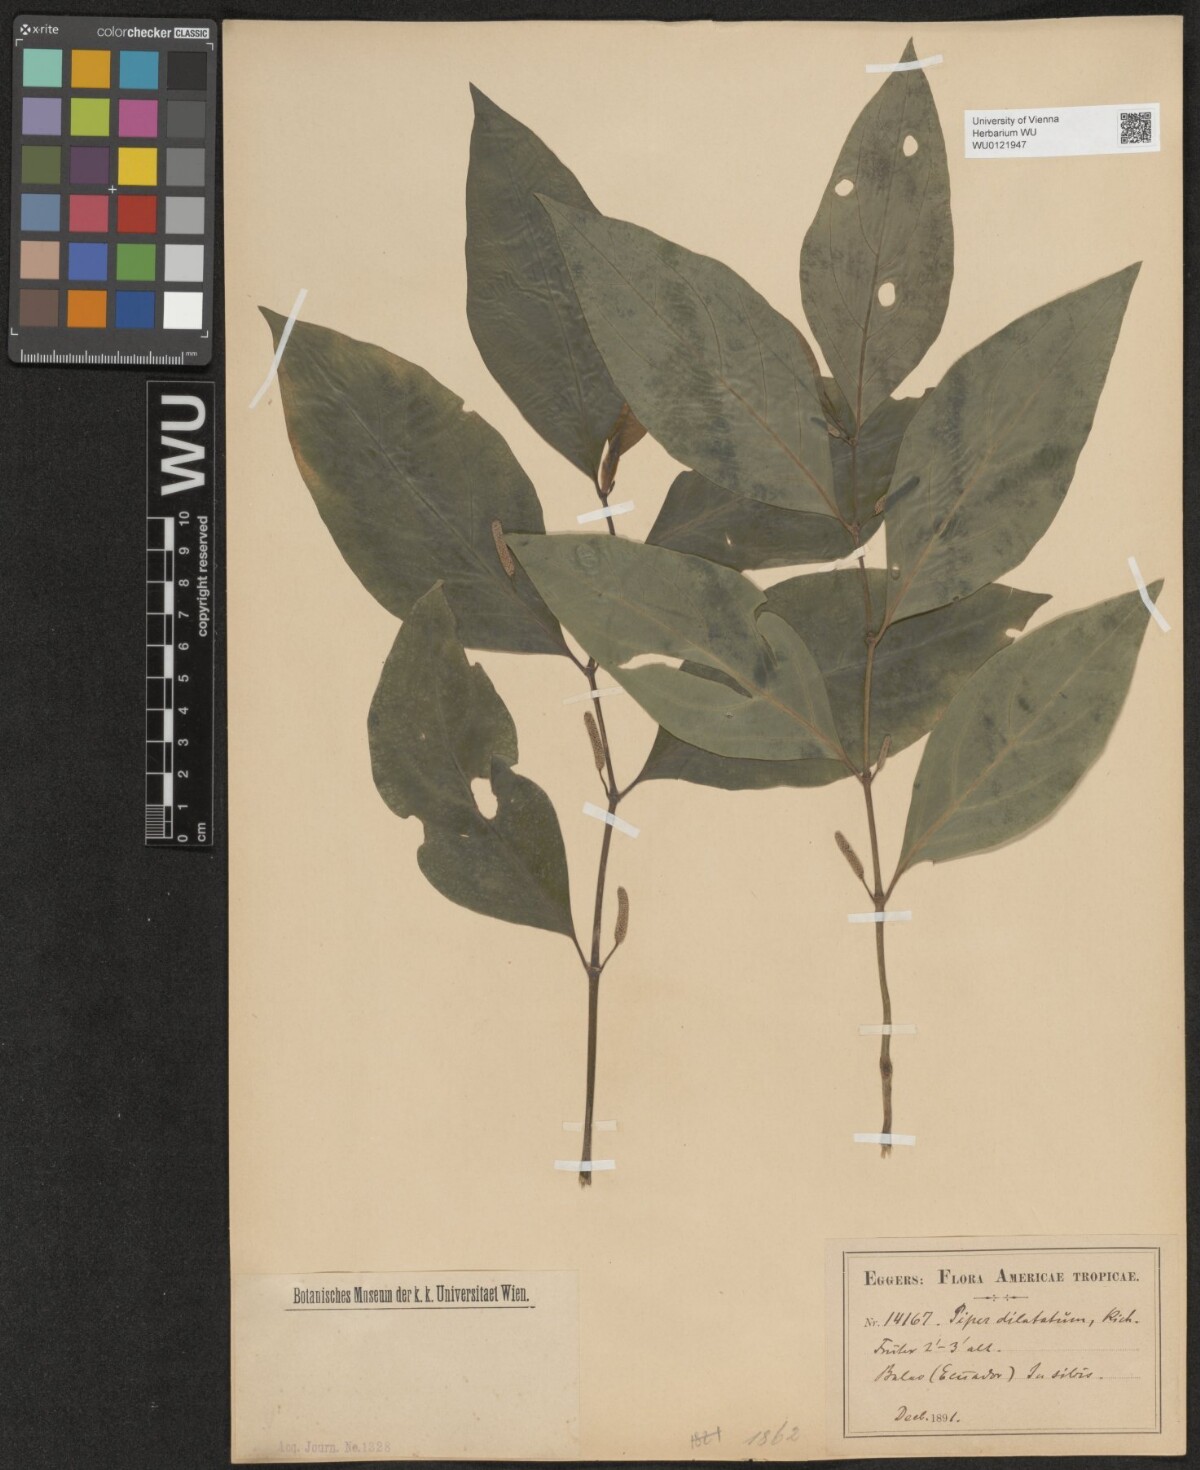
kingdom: Plantae
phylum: Tracheophyta
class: Magnoliopsida
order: Piperales
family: Piperaceae
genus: Piper
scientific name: Piper dilatatum
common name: Higuillo
